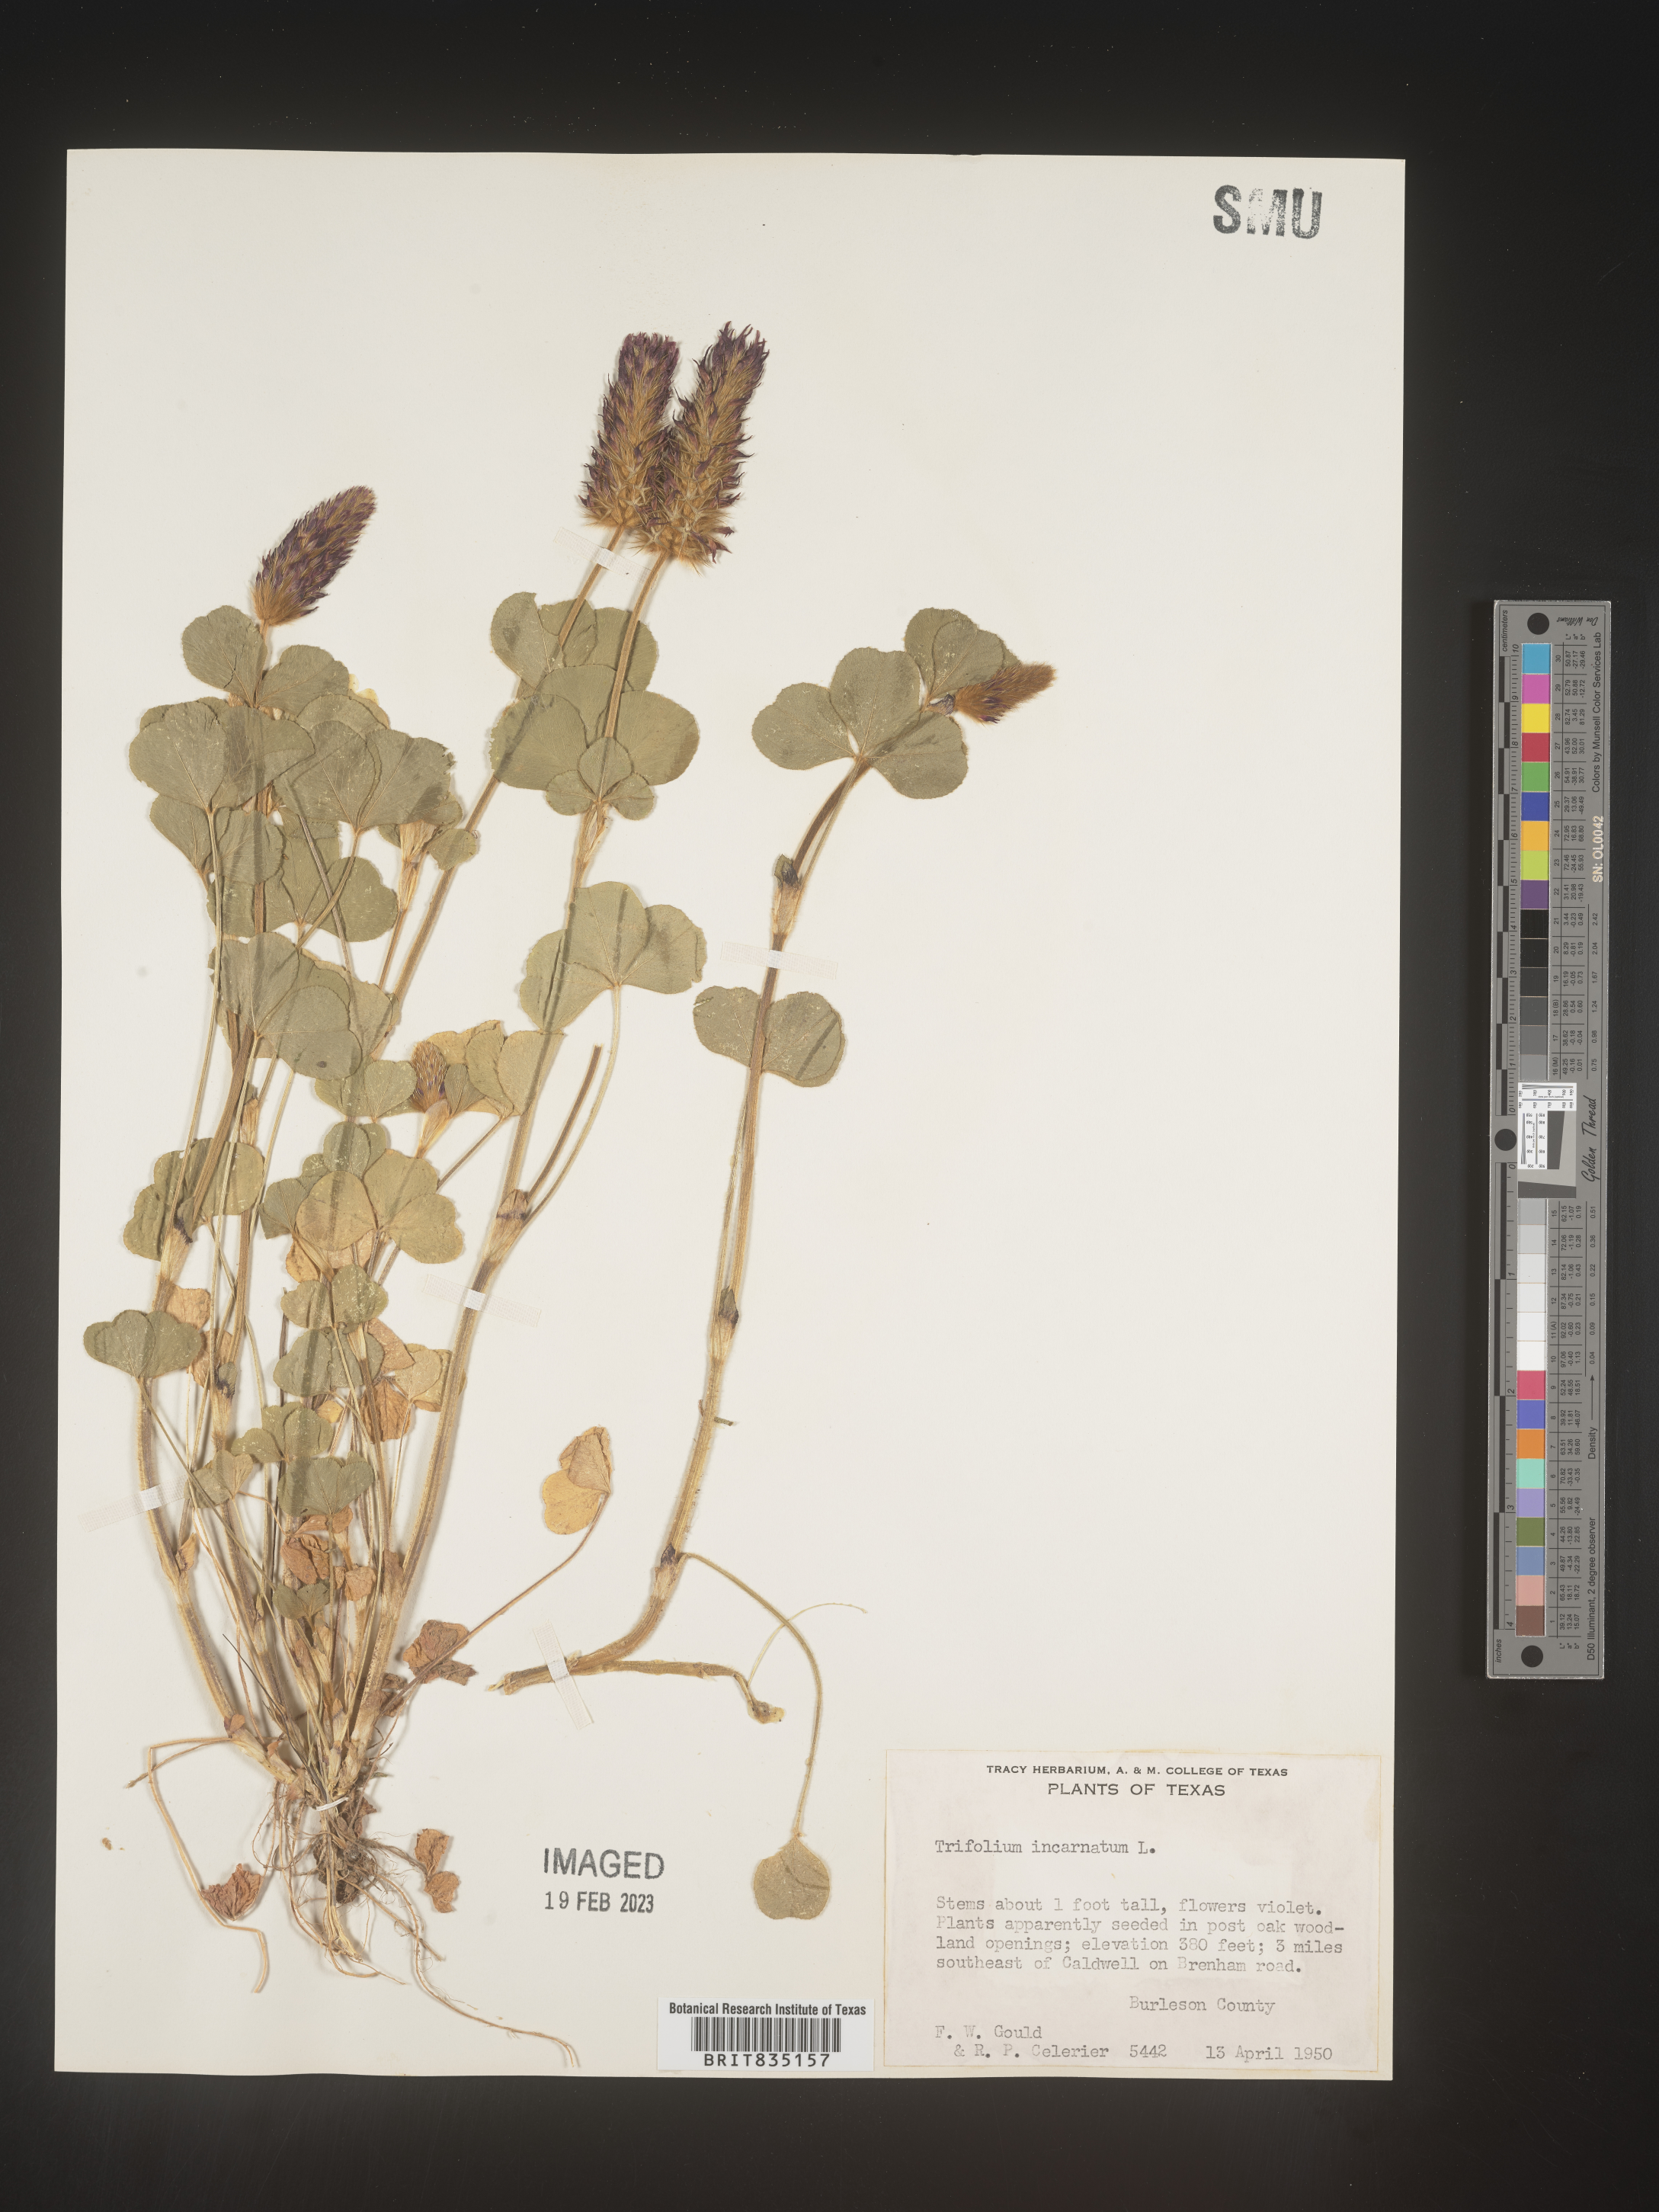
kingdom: Plantae
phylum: Tracheophyta
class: Magnoliopsida
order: Fabales
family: Fabaceae
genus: Trigonella
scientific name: Trigonella
